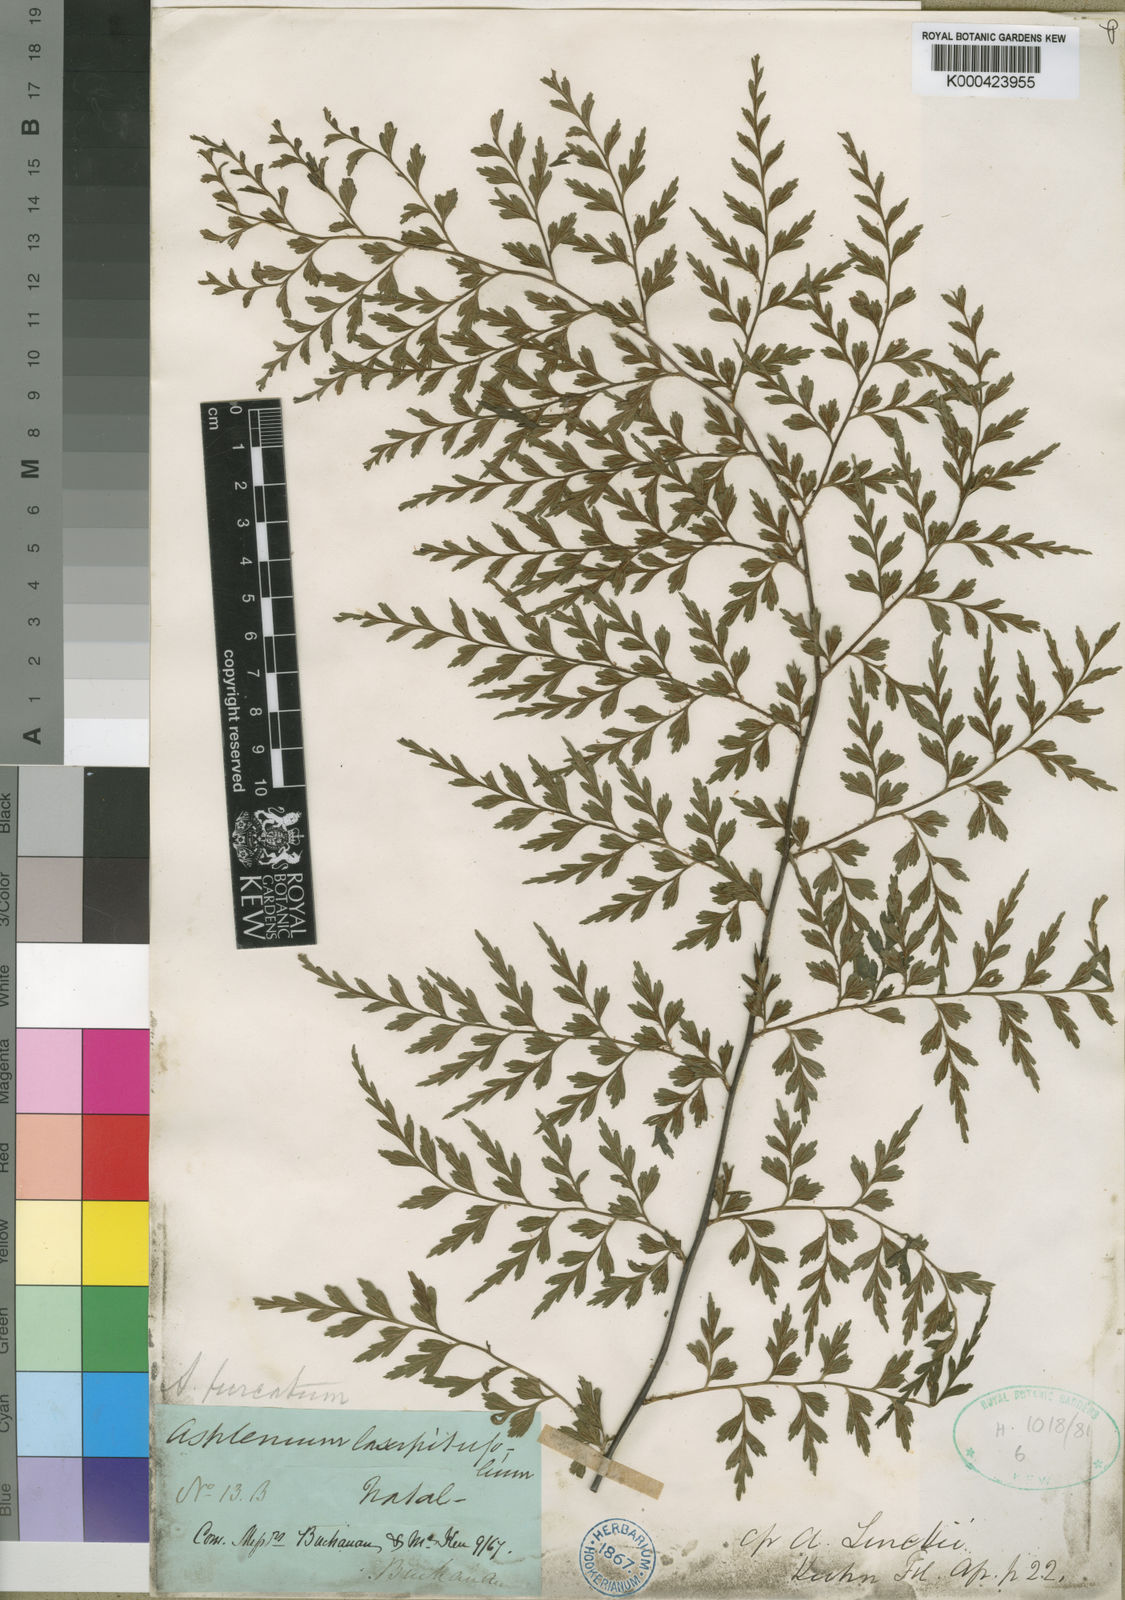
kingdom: Plantae
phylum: Tracheophyta
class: Polypodiopsida
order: Polypodiales
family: Aspleniaceae
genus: Asplenium
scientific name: Asplenium aethiopicum
